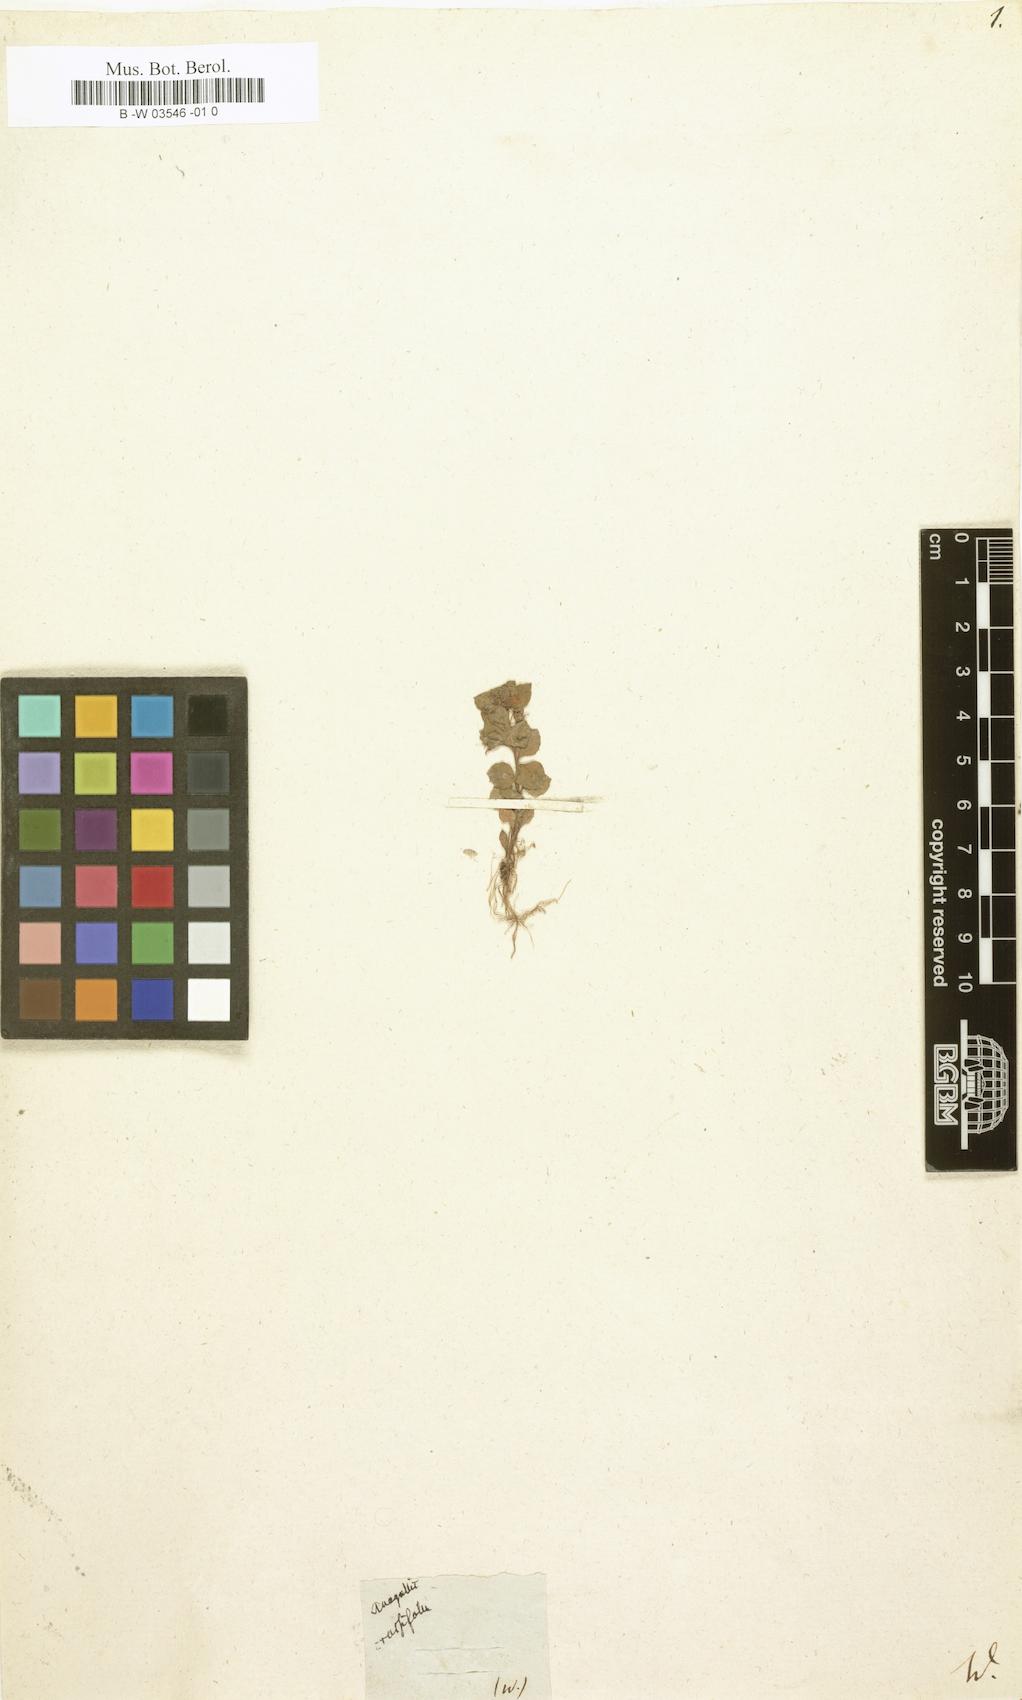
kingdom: Plantae
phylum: Tracheophyta
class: Magnoliopsida
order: Ericales
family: Primulaceae
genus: Lysimachia
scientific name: Lysimachia tyrrhenia
